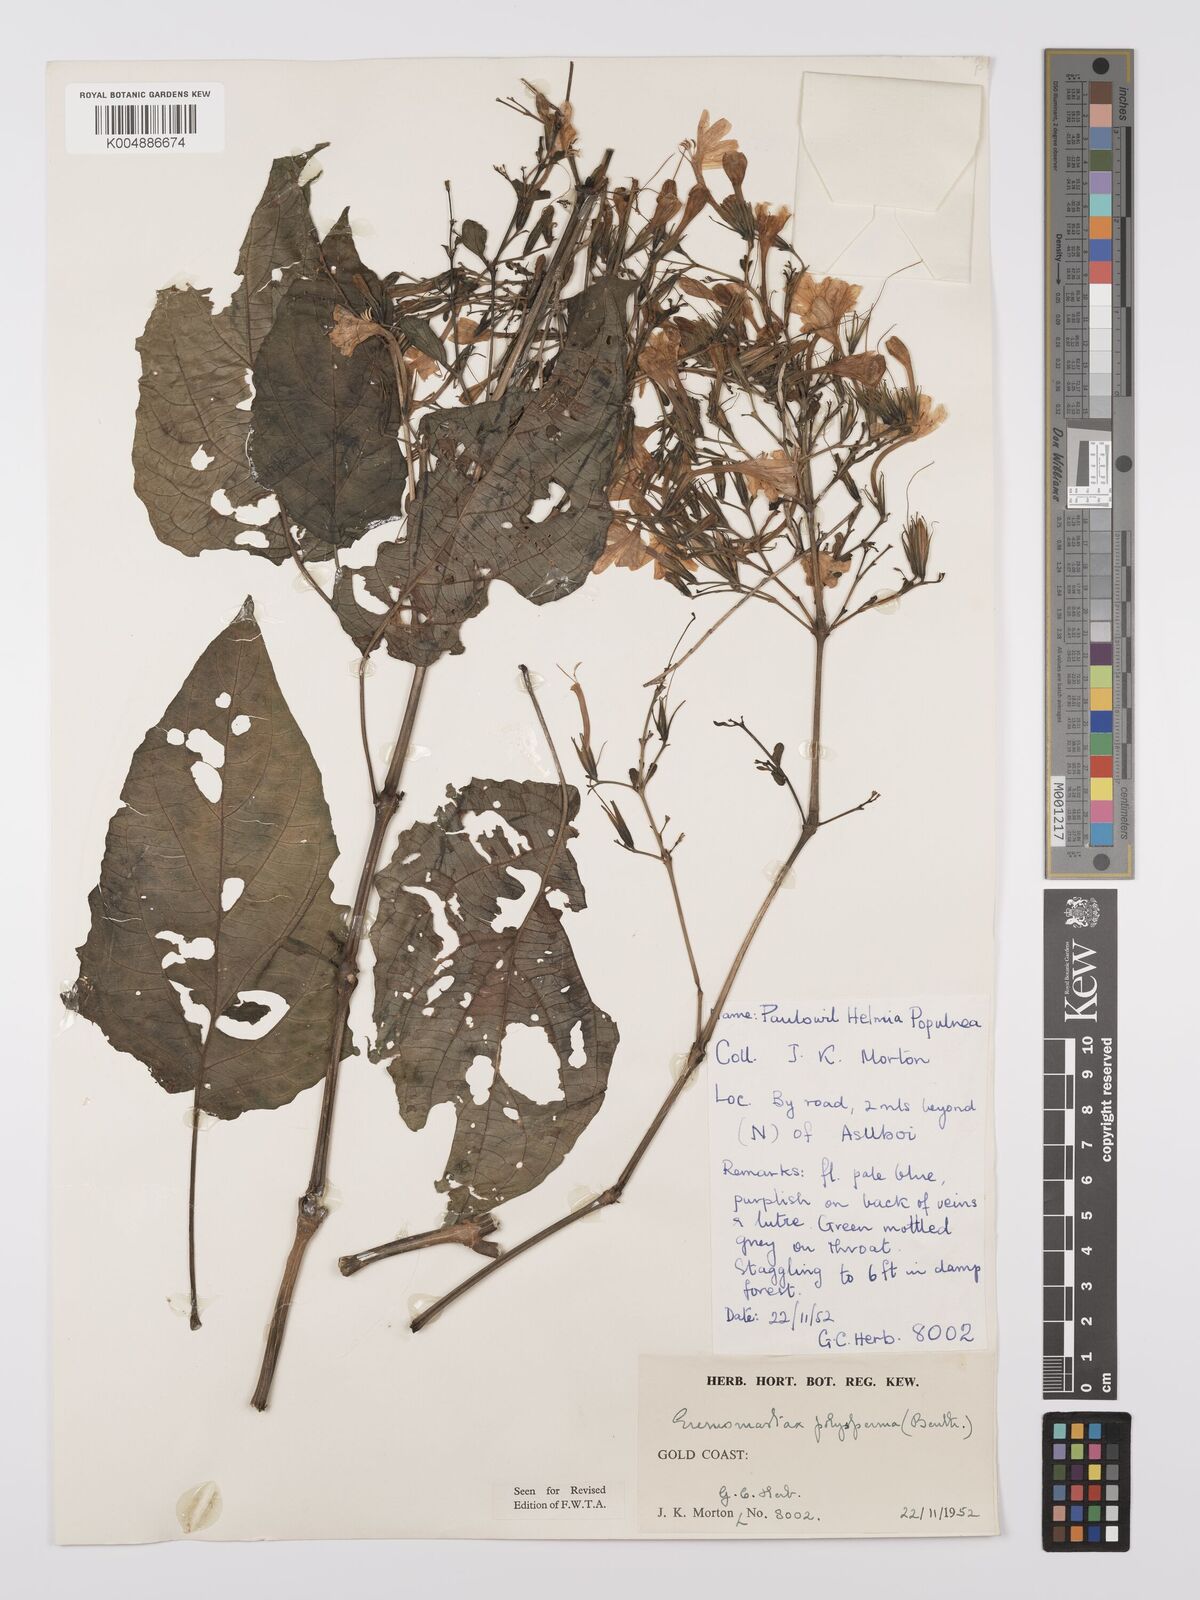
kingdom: Plantae
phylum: Tracheophyta
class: Magnoliopsida
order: Lamiales
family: Acanthaceae
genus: Eremomastax
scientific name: Eremomastax speciosa
